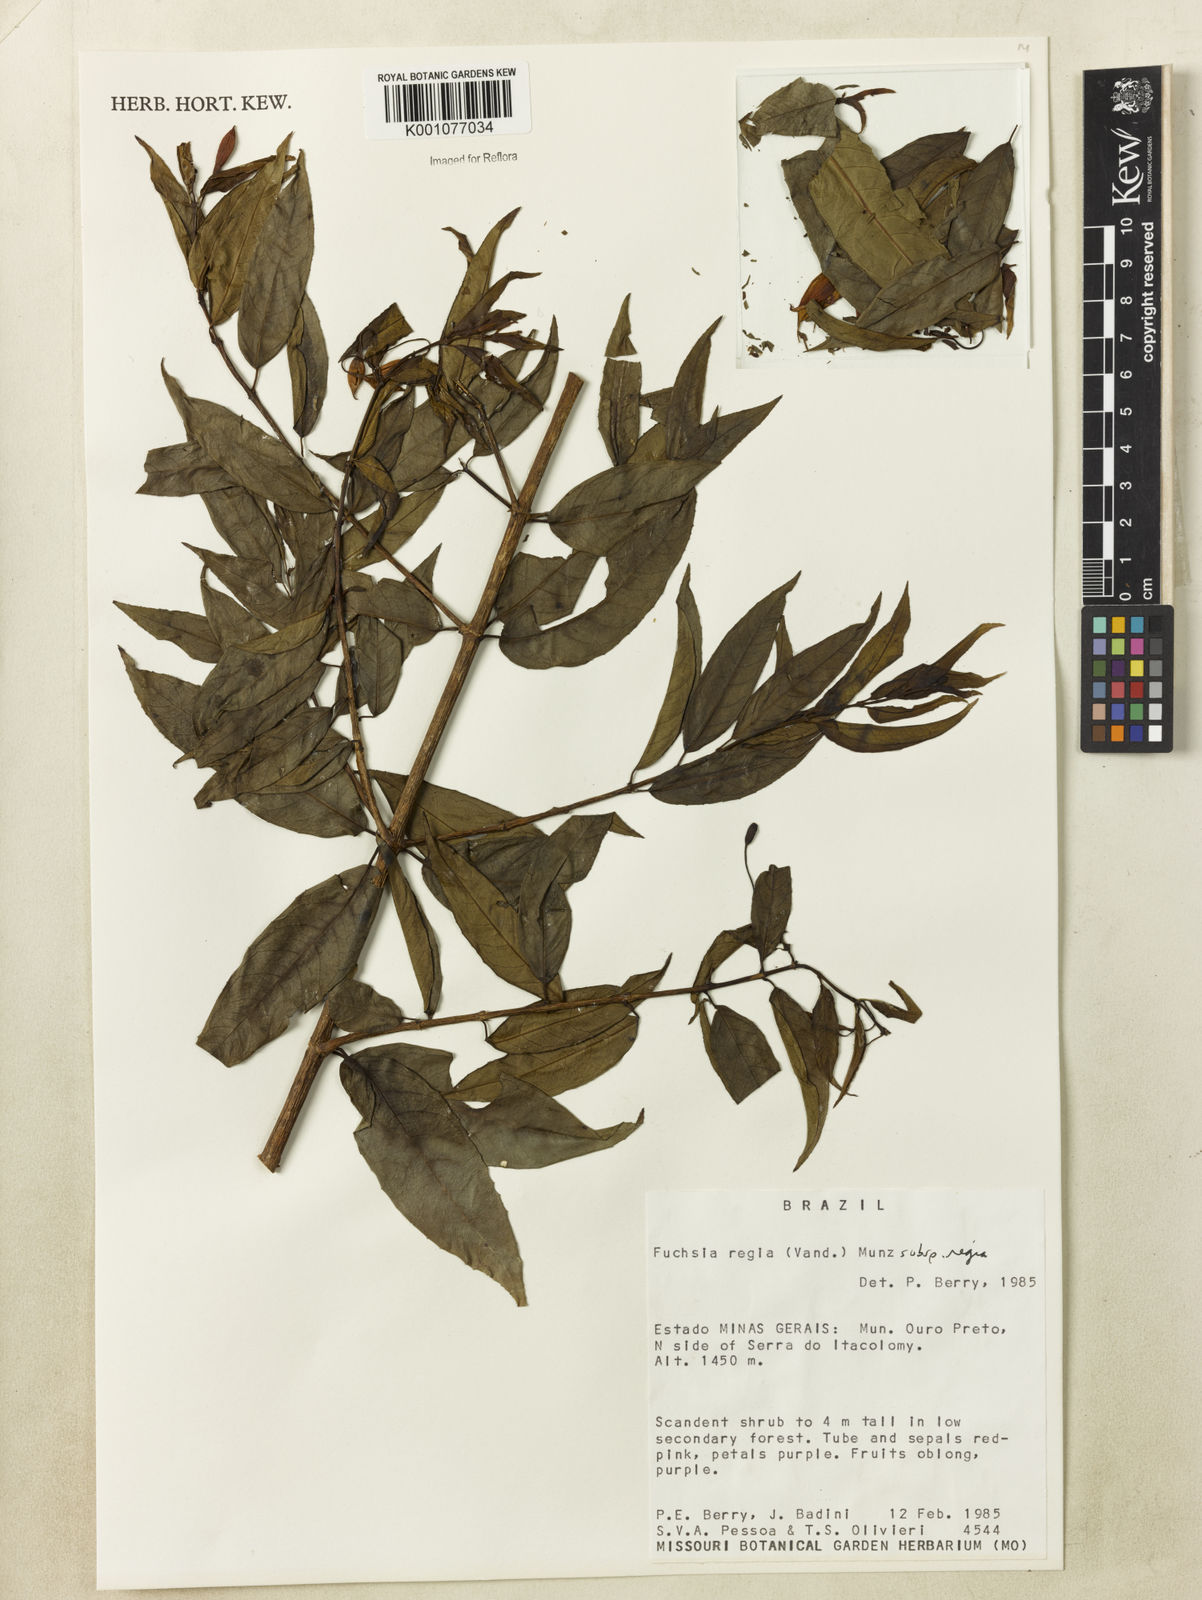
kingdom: Plantae
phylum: Tracheophyta
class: Magnoliopsida
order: Myrtales
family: Onagraceae
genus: Fuchsia
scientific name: Fuchsia regia
